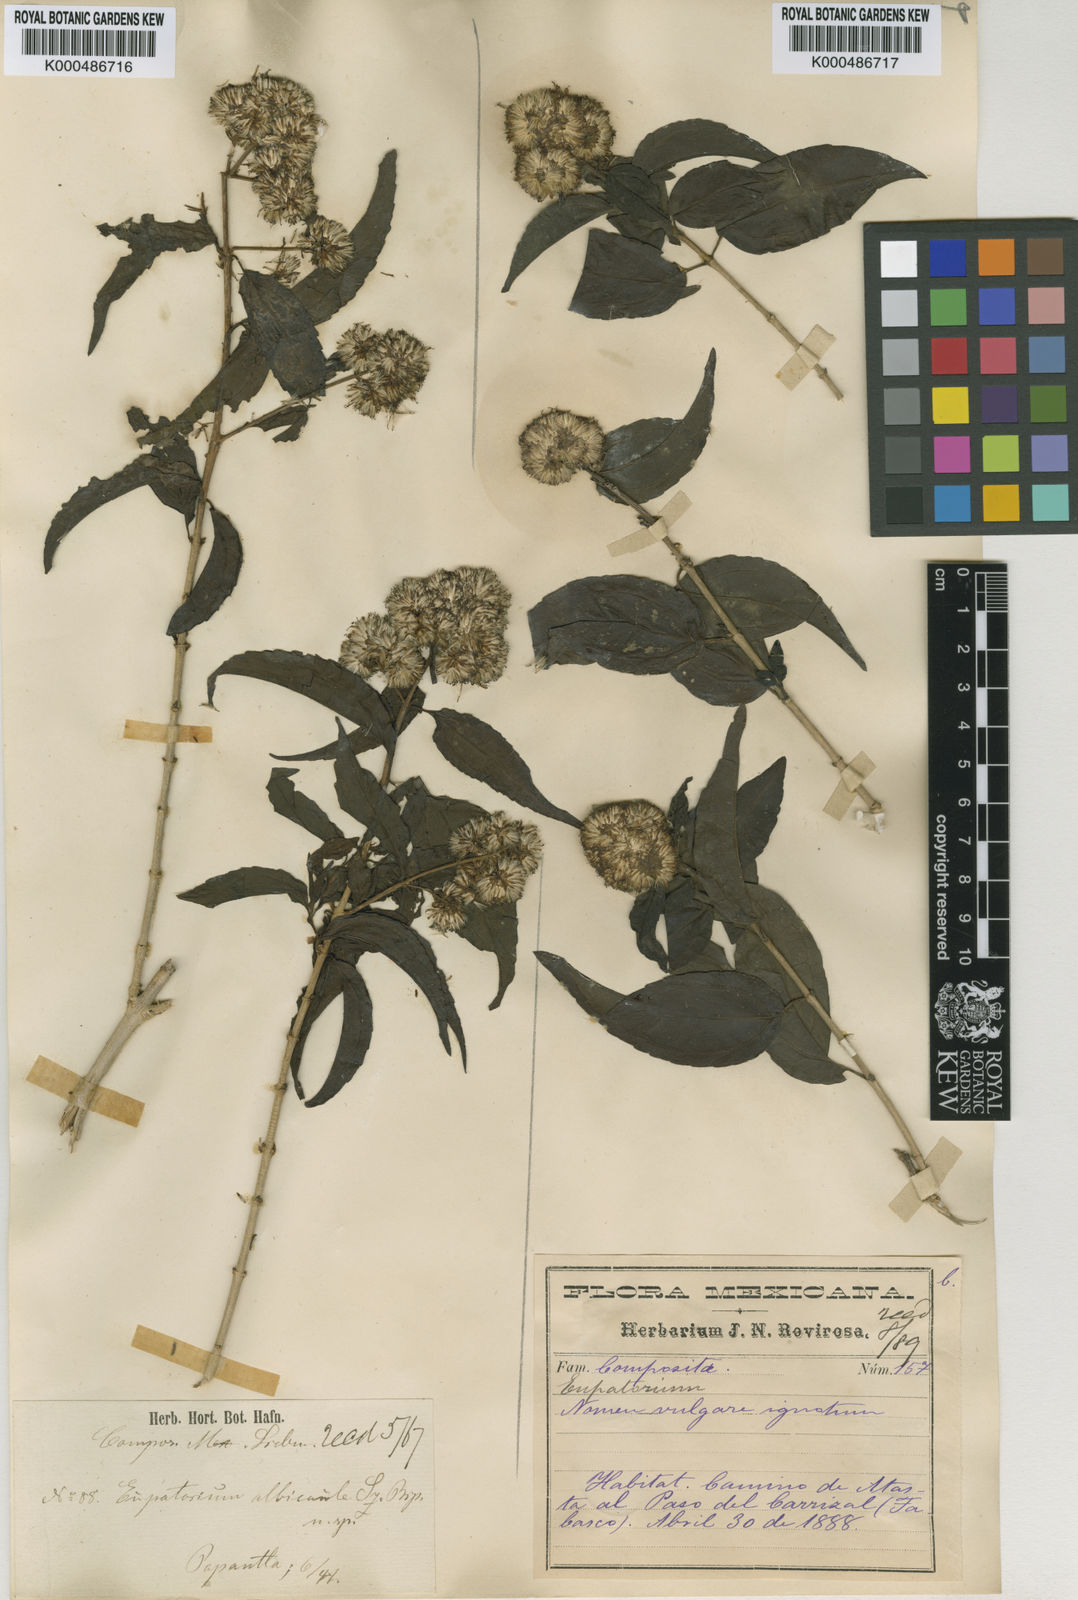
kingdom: Plantae
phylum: Tracheophyta
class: Magnoliopsida
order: Asterales
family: Asteraceae
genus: Koanophyllon
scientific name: Koanophyllon albicaule
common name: Old women's walking stick
